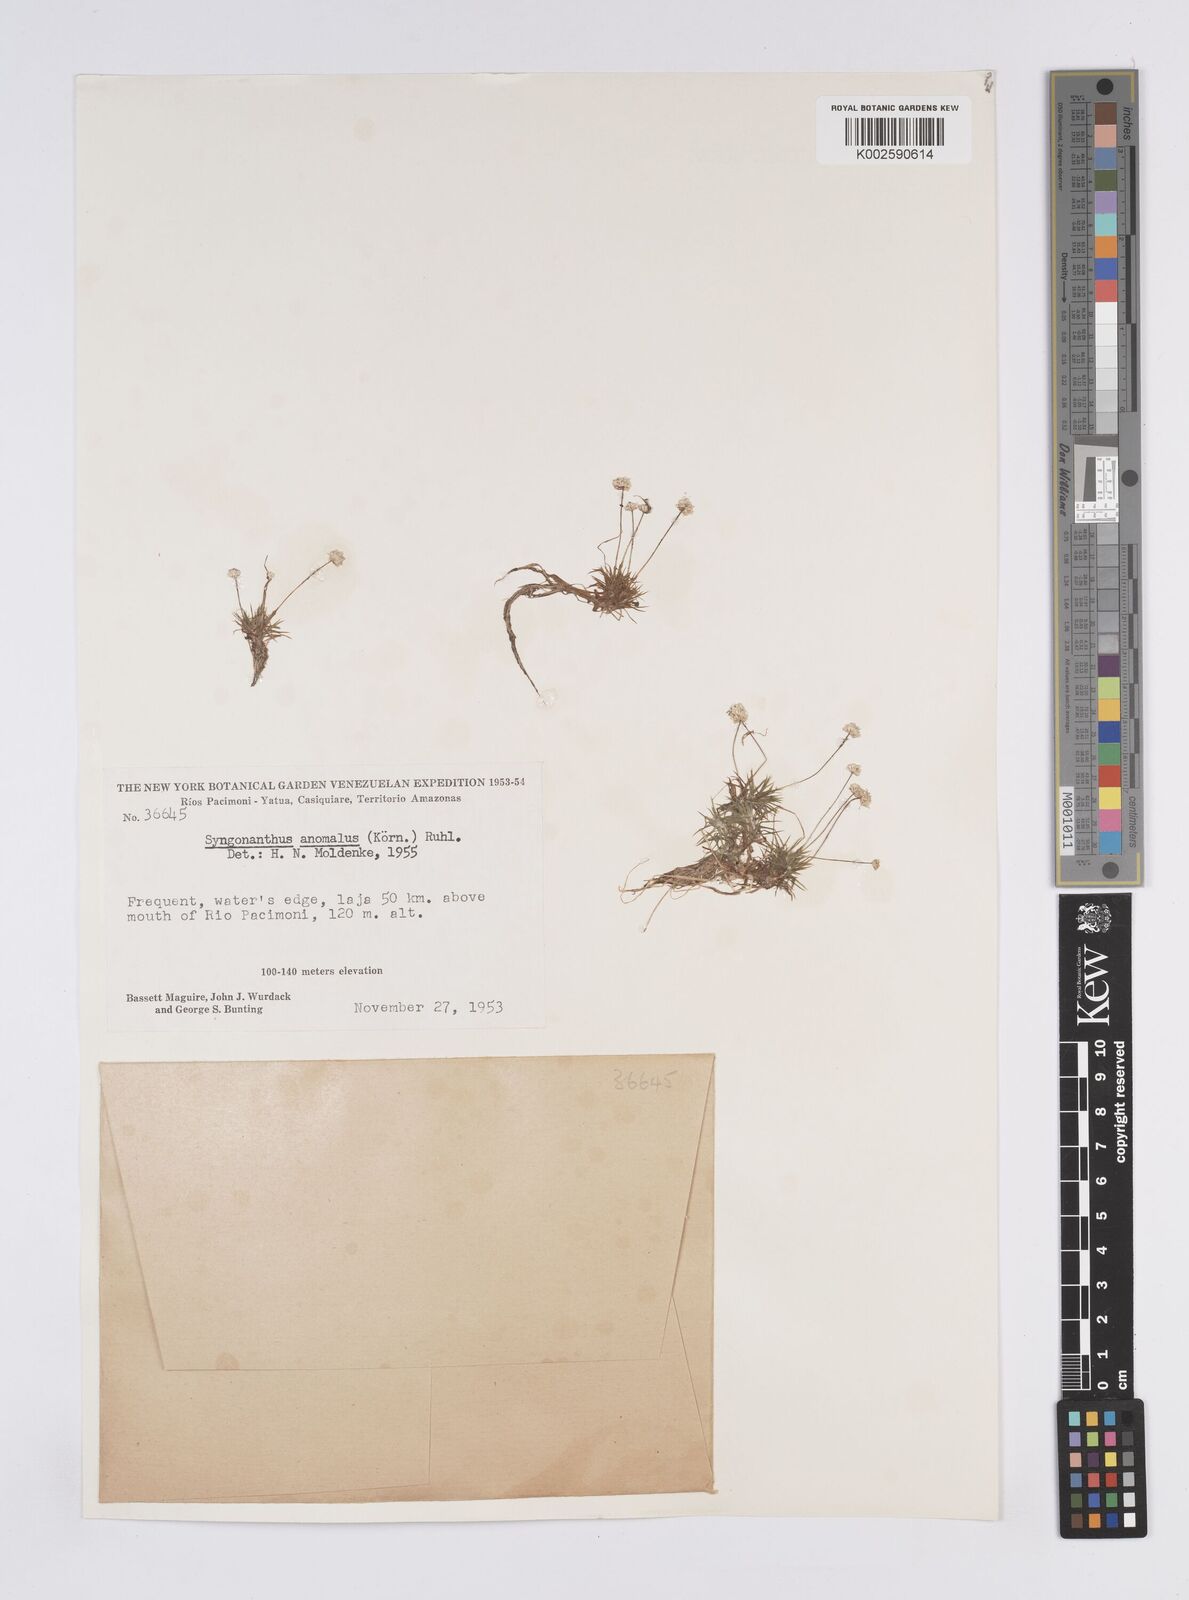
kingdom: Plantae
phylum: Tracheophyta
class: Liliopsida
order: Poales
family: Eriocaulaceae
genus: Syngonanthus
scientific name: Syngonanthus anomalus
